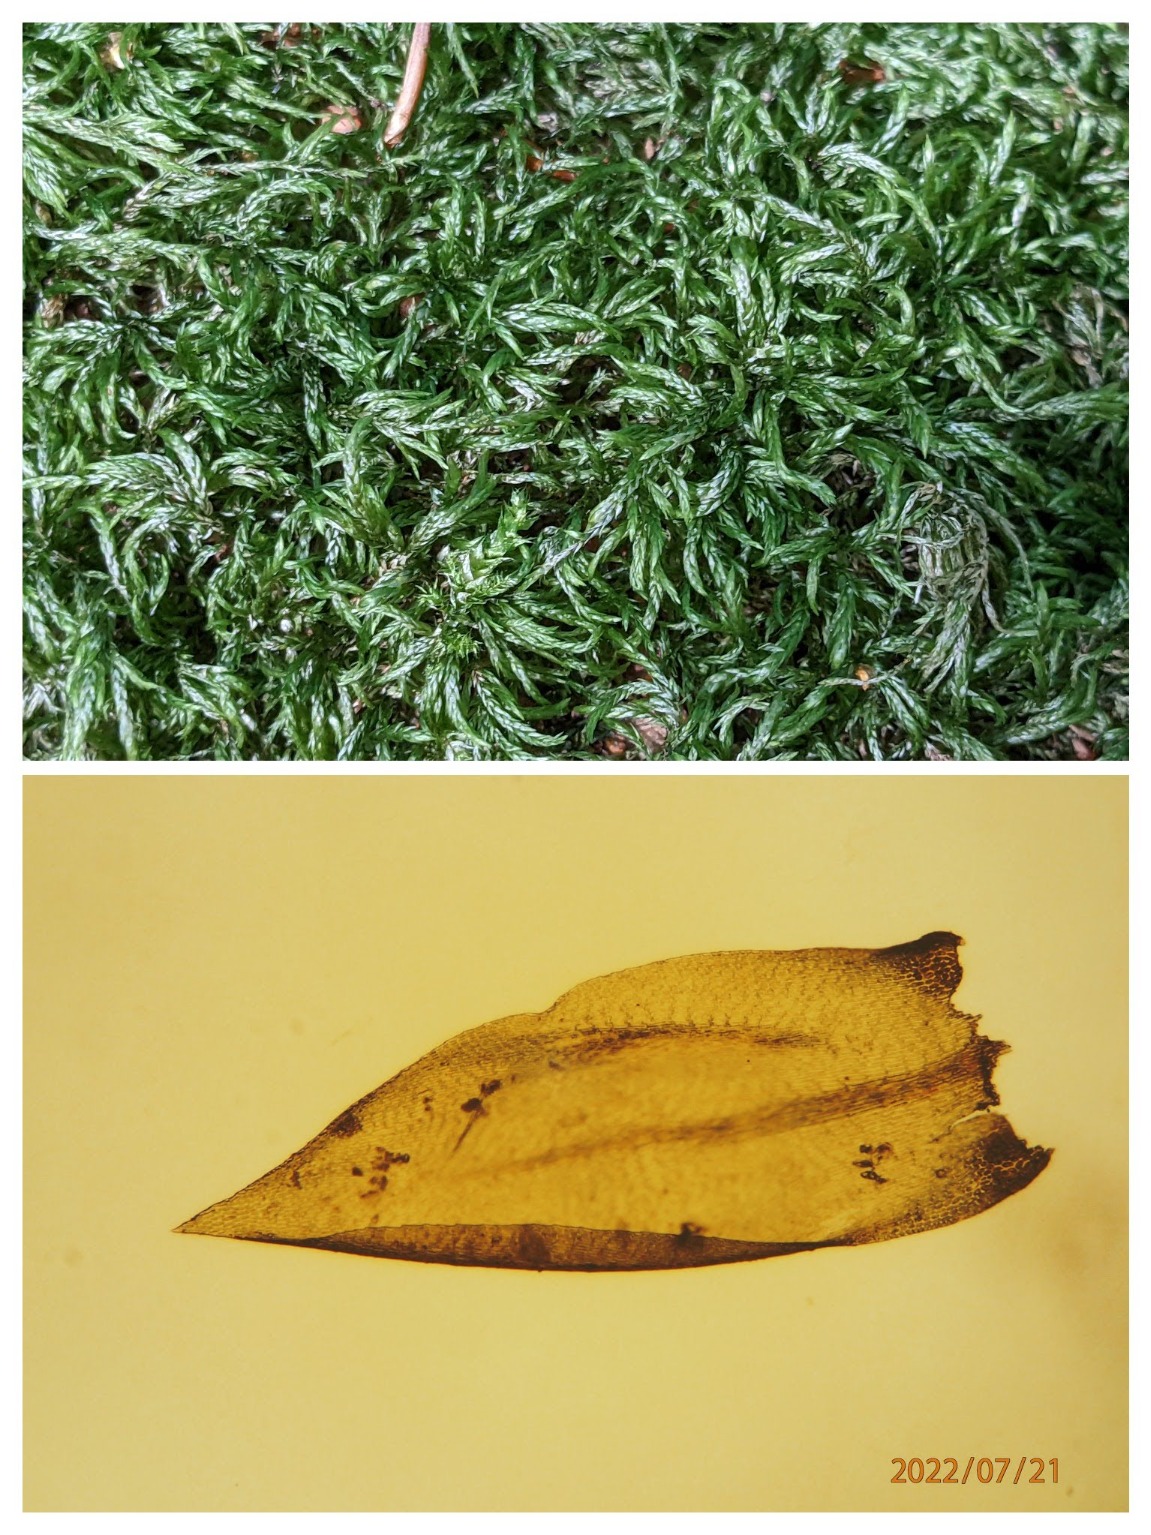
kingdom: Plantae
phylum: Bryophyta
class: Bryopsida
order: Hypnales
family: Lembophyllaceae
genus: Isothecium
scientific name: Isothecium alopecuroides
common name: Stor stammemos
